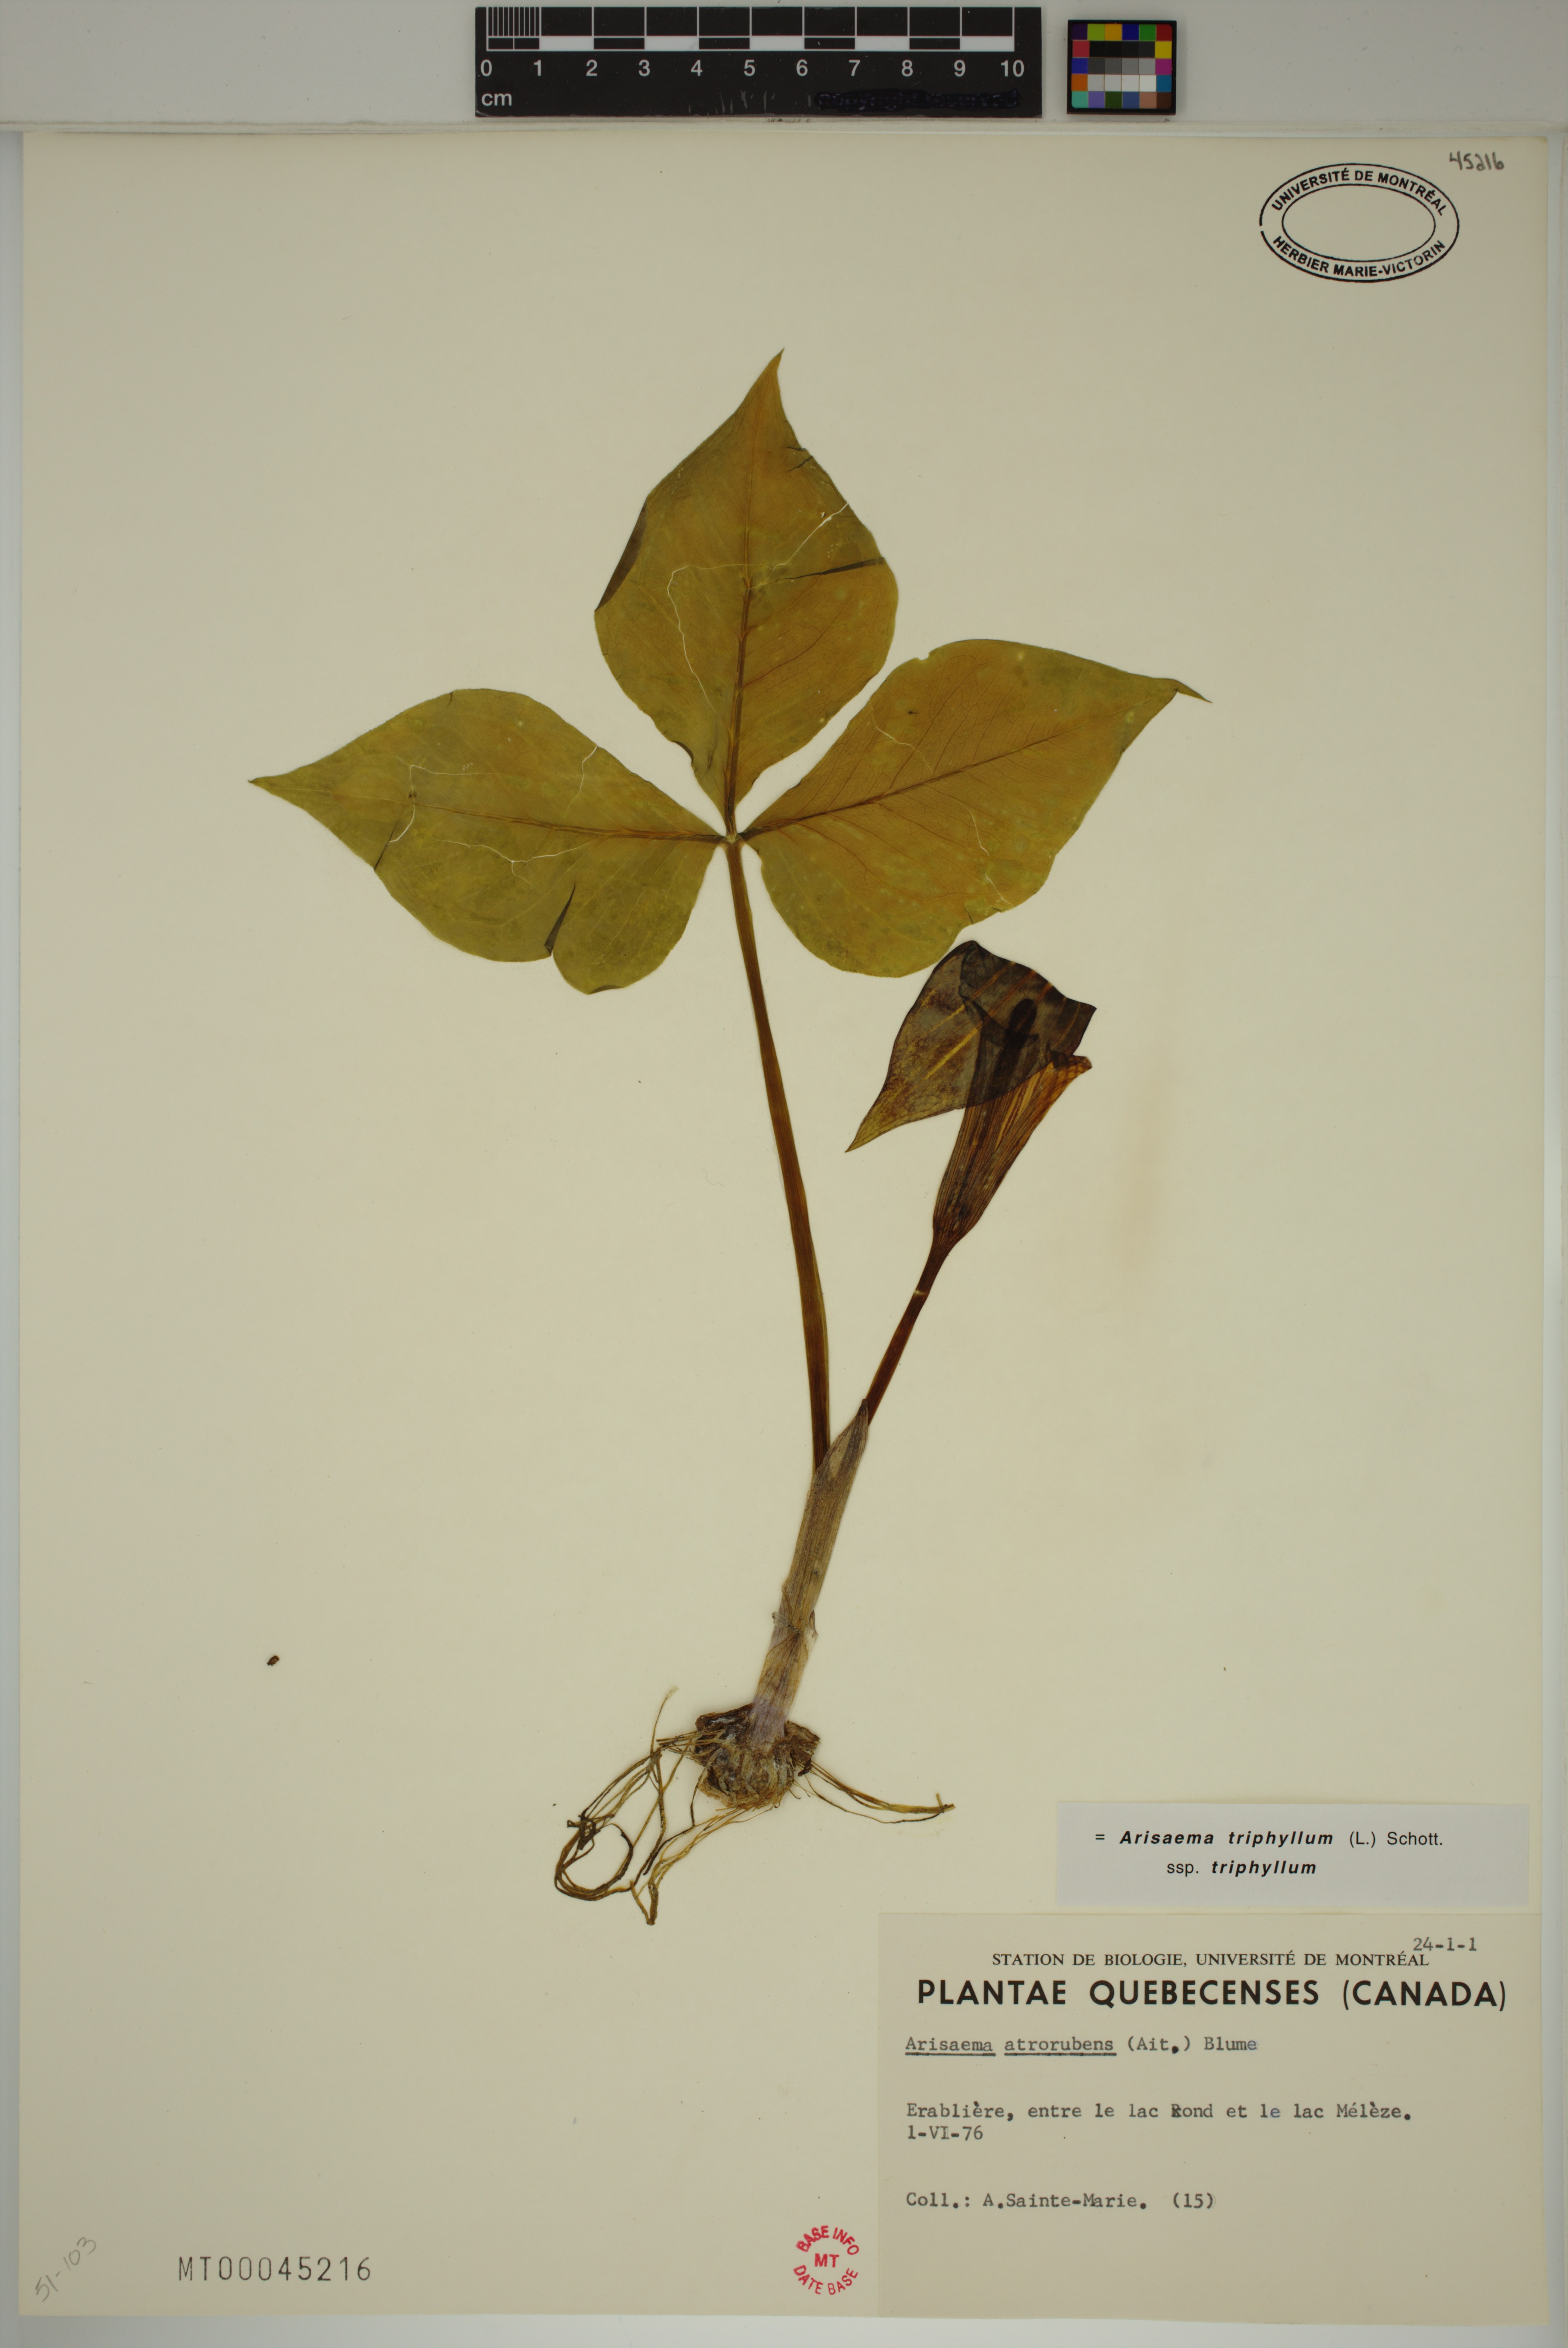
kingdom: Plantae
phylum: Tracheophyta
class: Liliopsida
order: Alismatales
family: Araceae
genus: Arisaema
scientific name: Arisaema triphyllum
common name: Jack-in-the-pulpit
